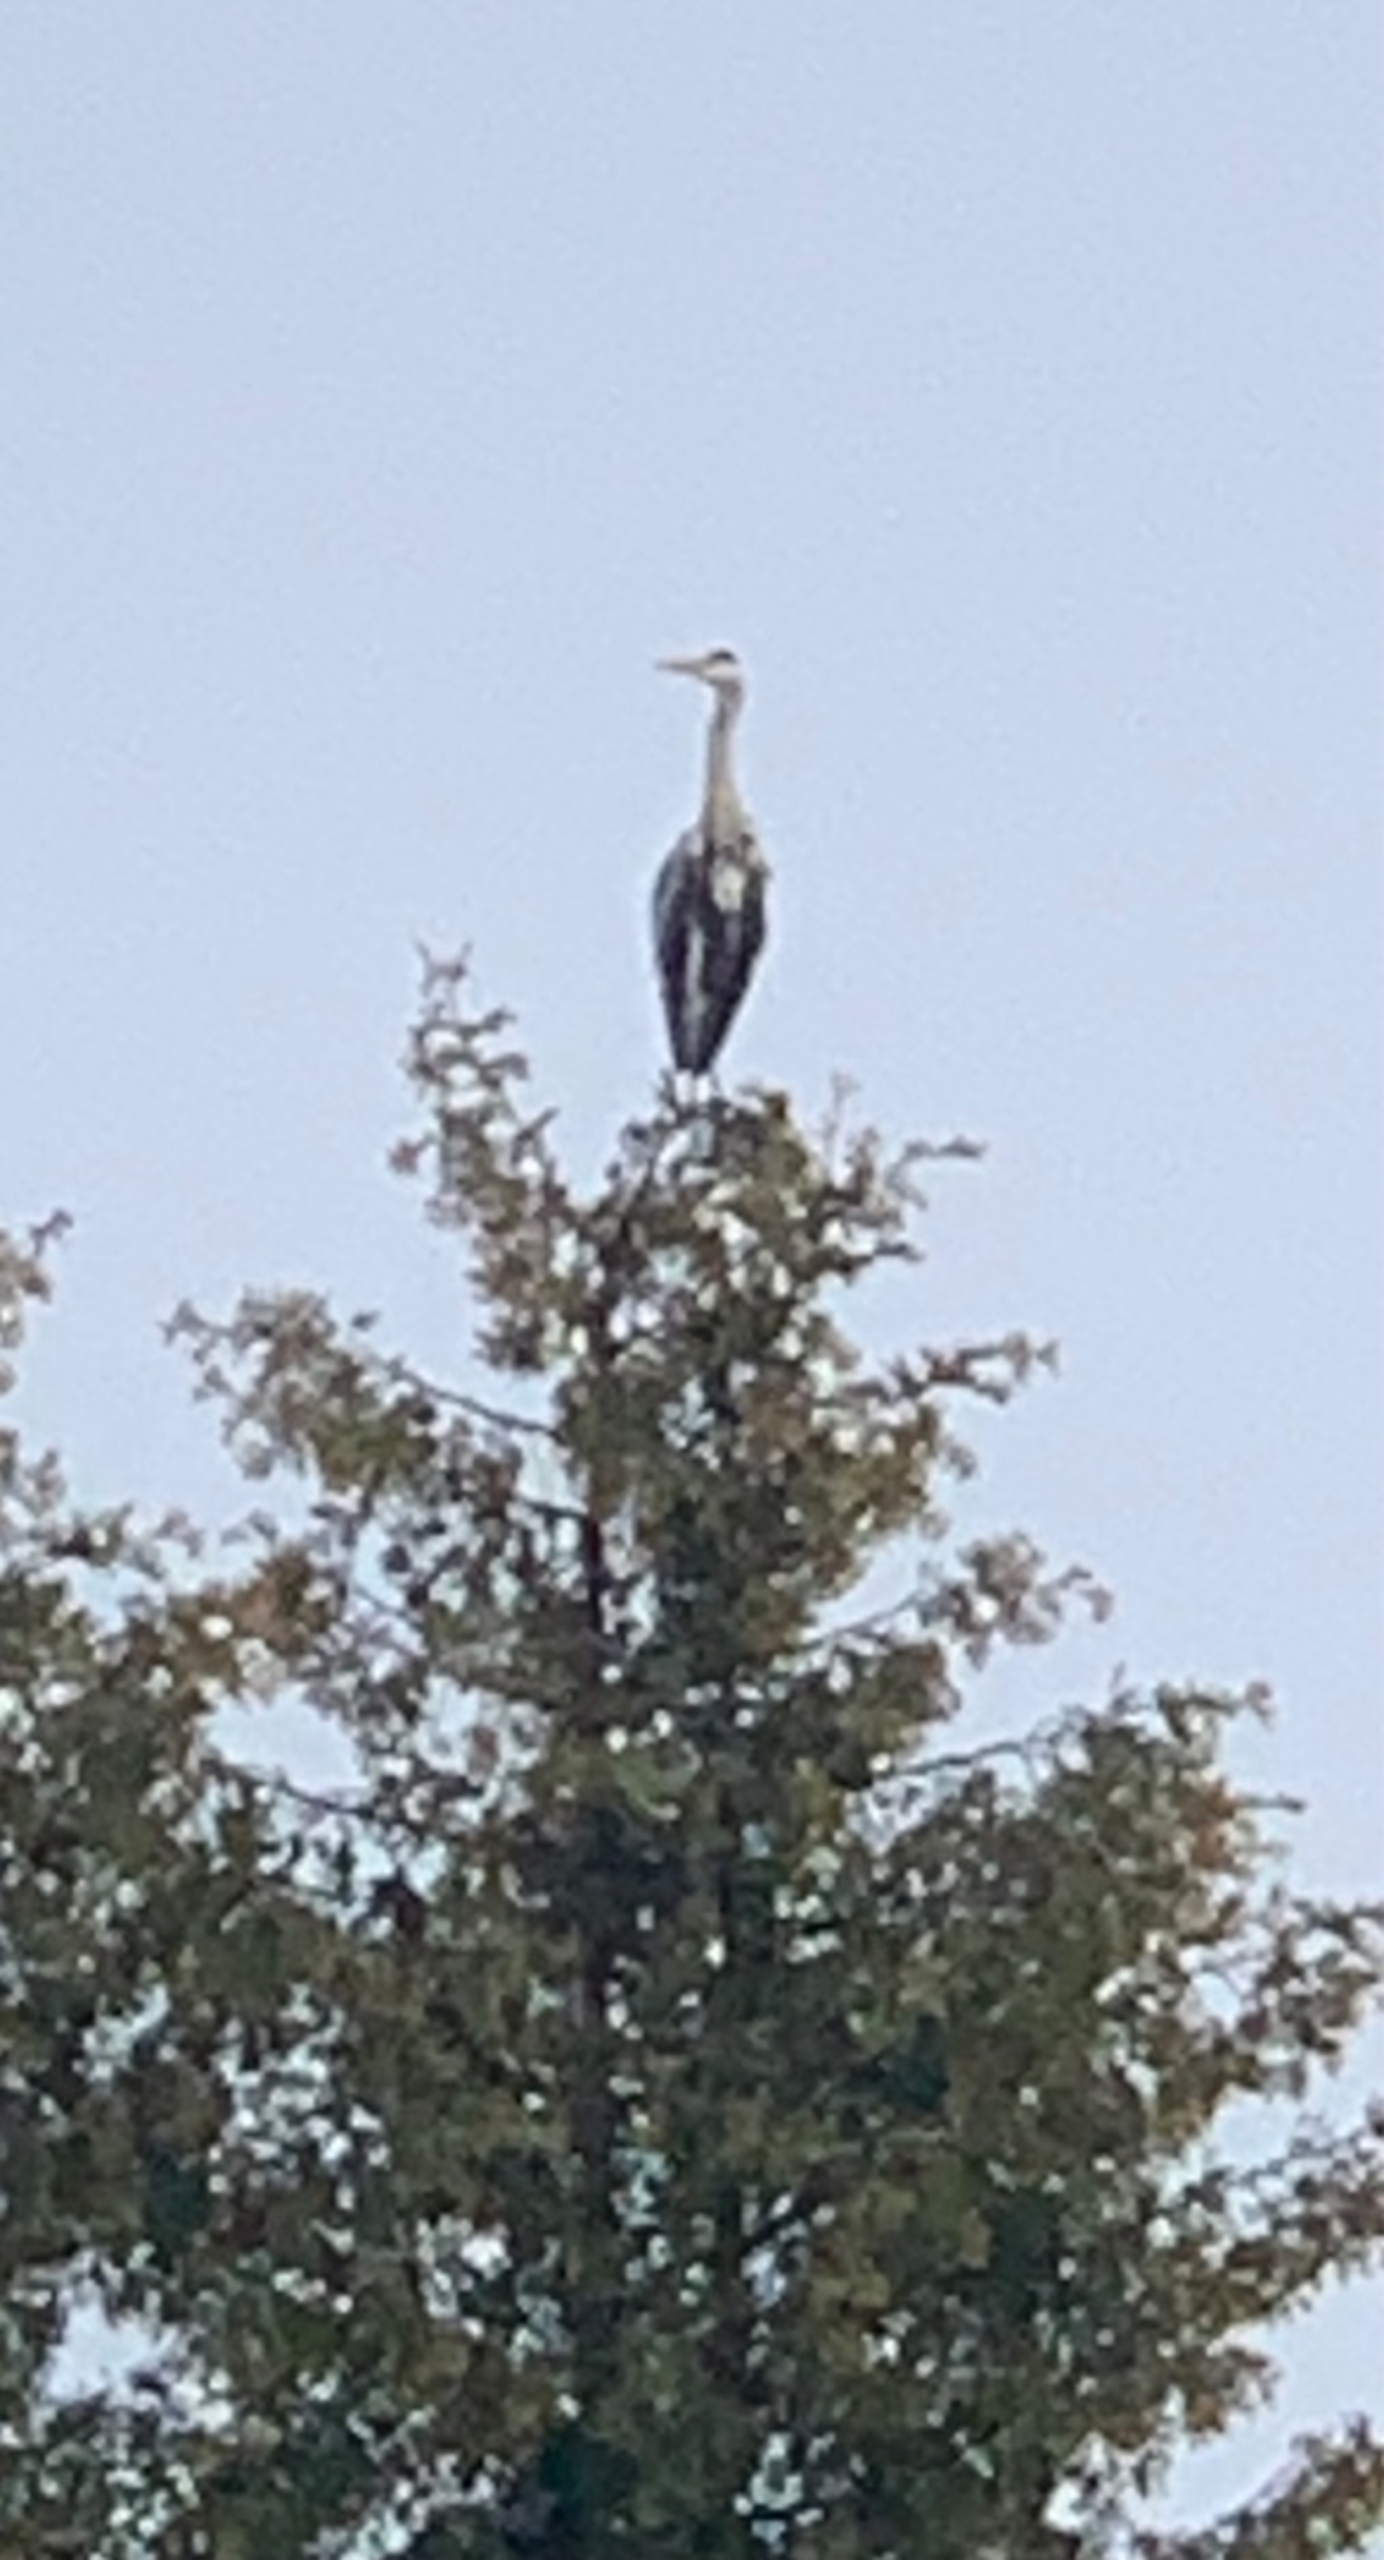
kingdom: Animalia
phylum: Chordata
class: Aves
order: Pelecaniformes
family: Ardeidae
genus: Ardea
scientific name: Ardea cinerea
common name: Fiskehejre
